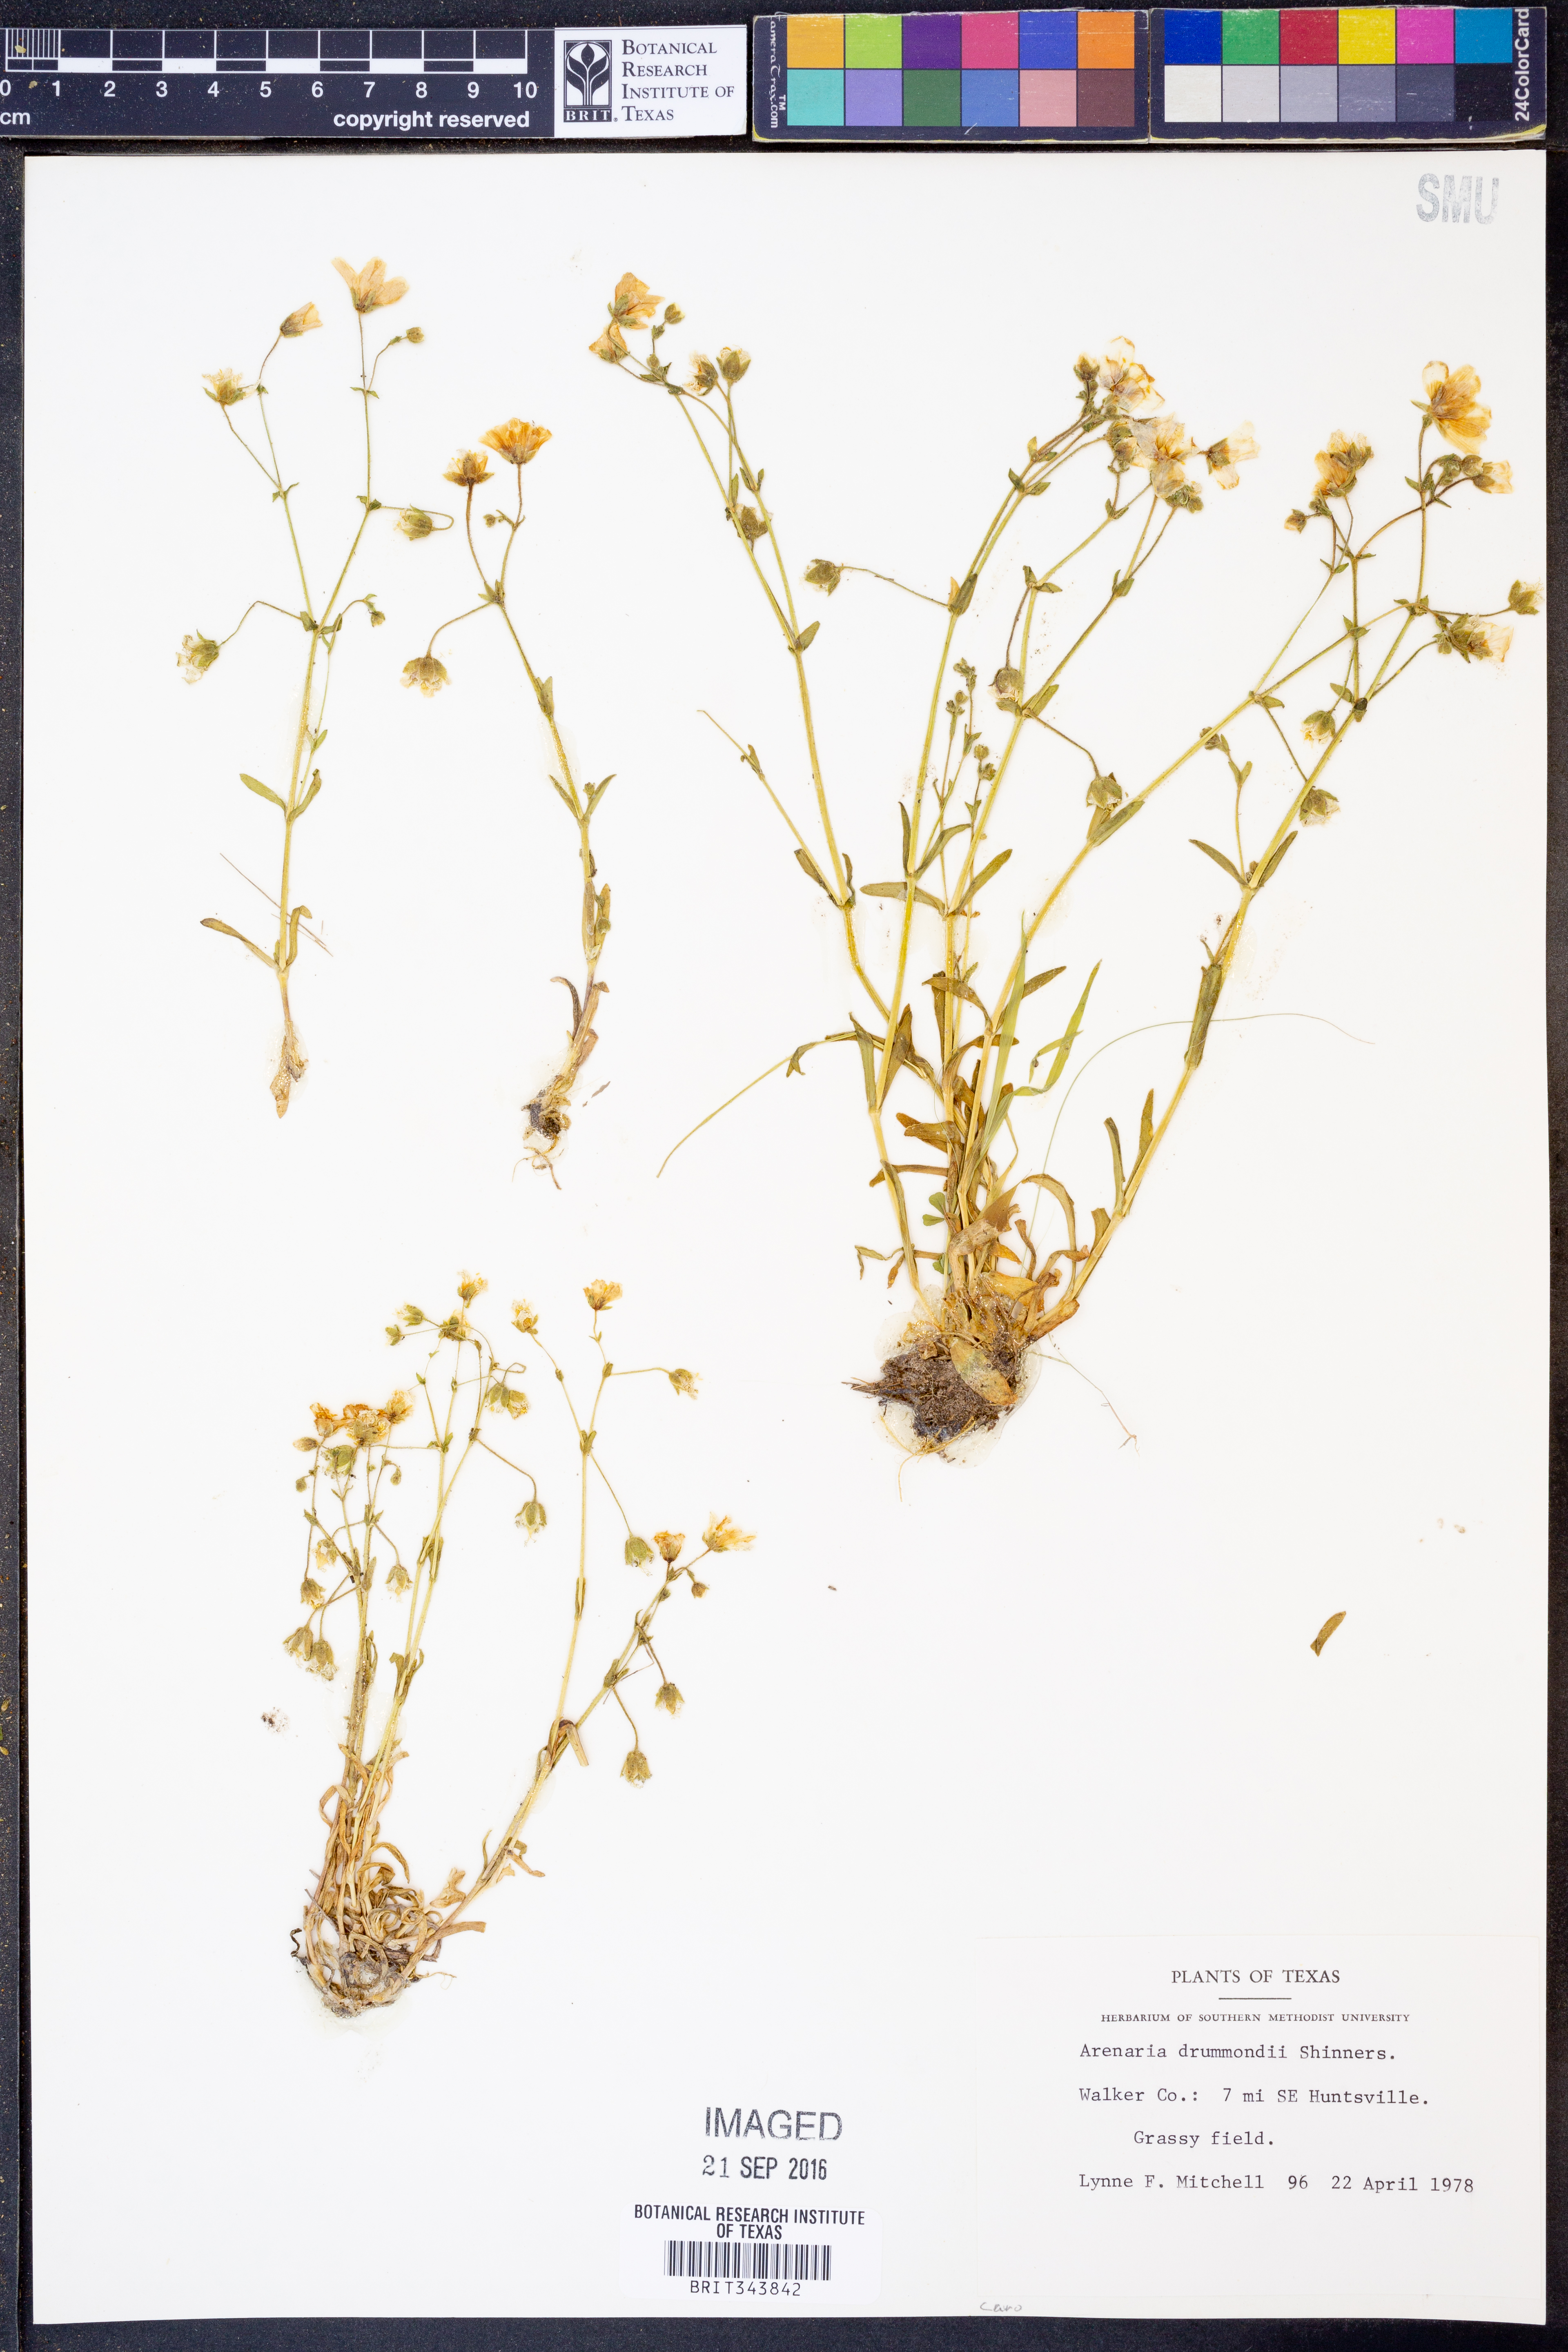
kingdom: Plantae
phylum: Tracheophyta
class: Magnoliopsida
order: Caryophyllales
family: Caryophyllaceae
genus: Geocarpon
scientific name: Geocarpon nuttallii
